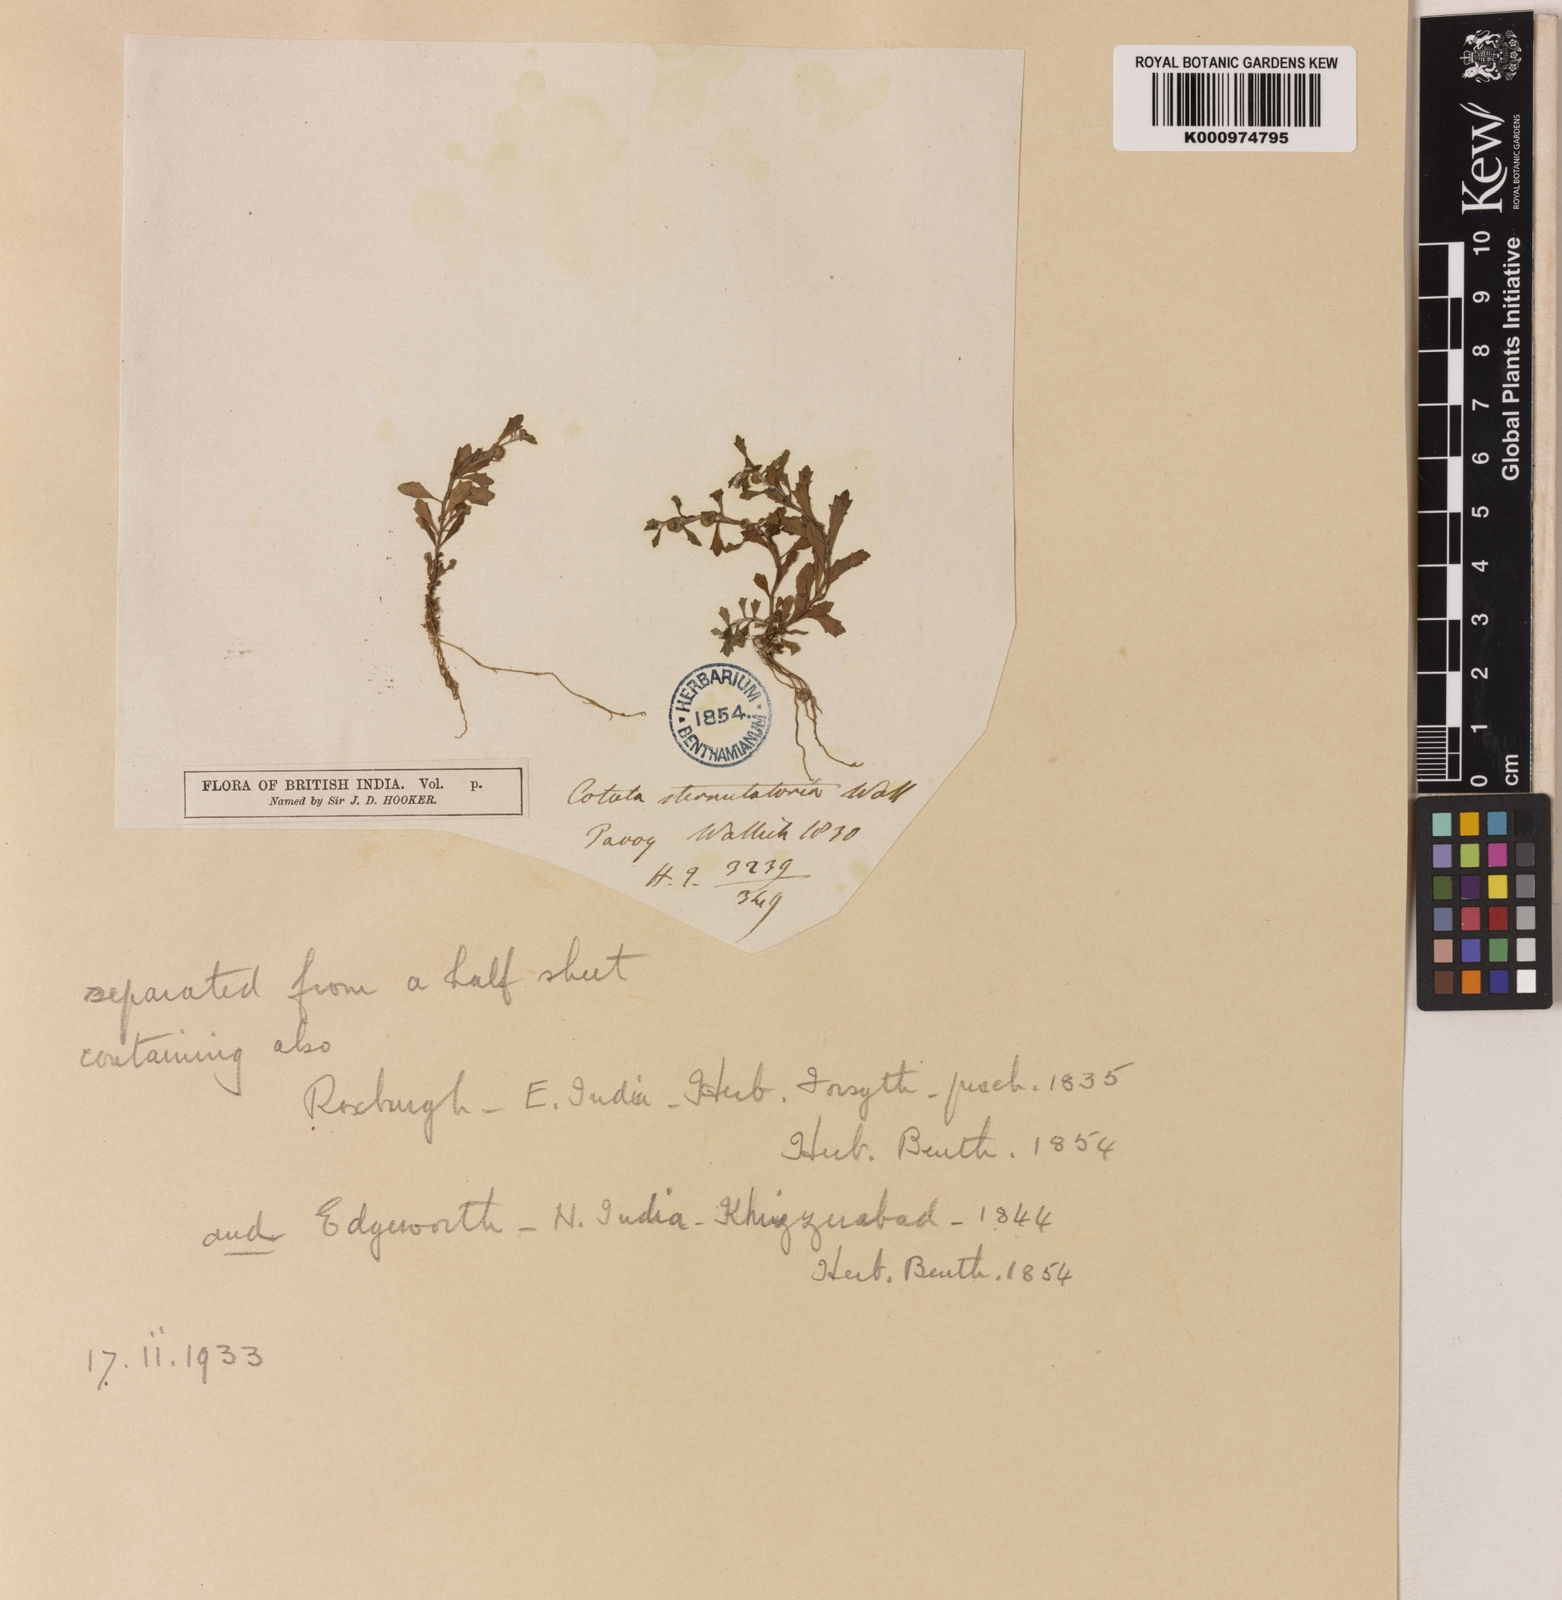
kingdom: Plantae
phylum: Tracheophyta
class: Magnoliopsida
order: Asterales
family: Asteraceae
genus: Centipeda
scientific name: Centipeda minima
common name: Spreading sneezeweed
